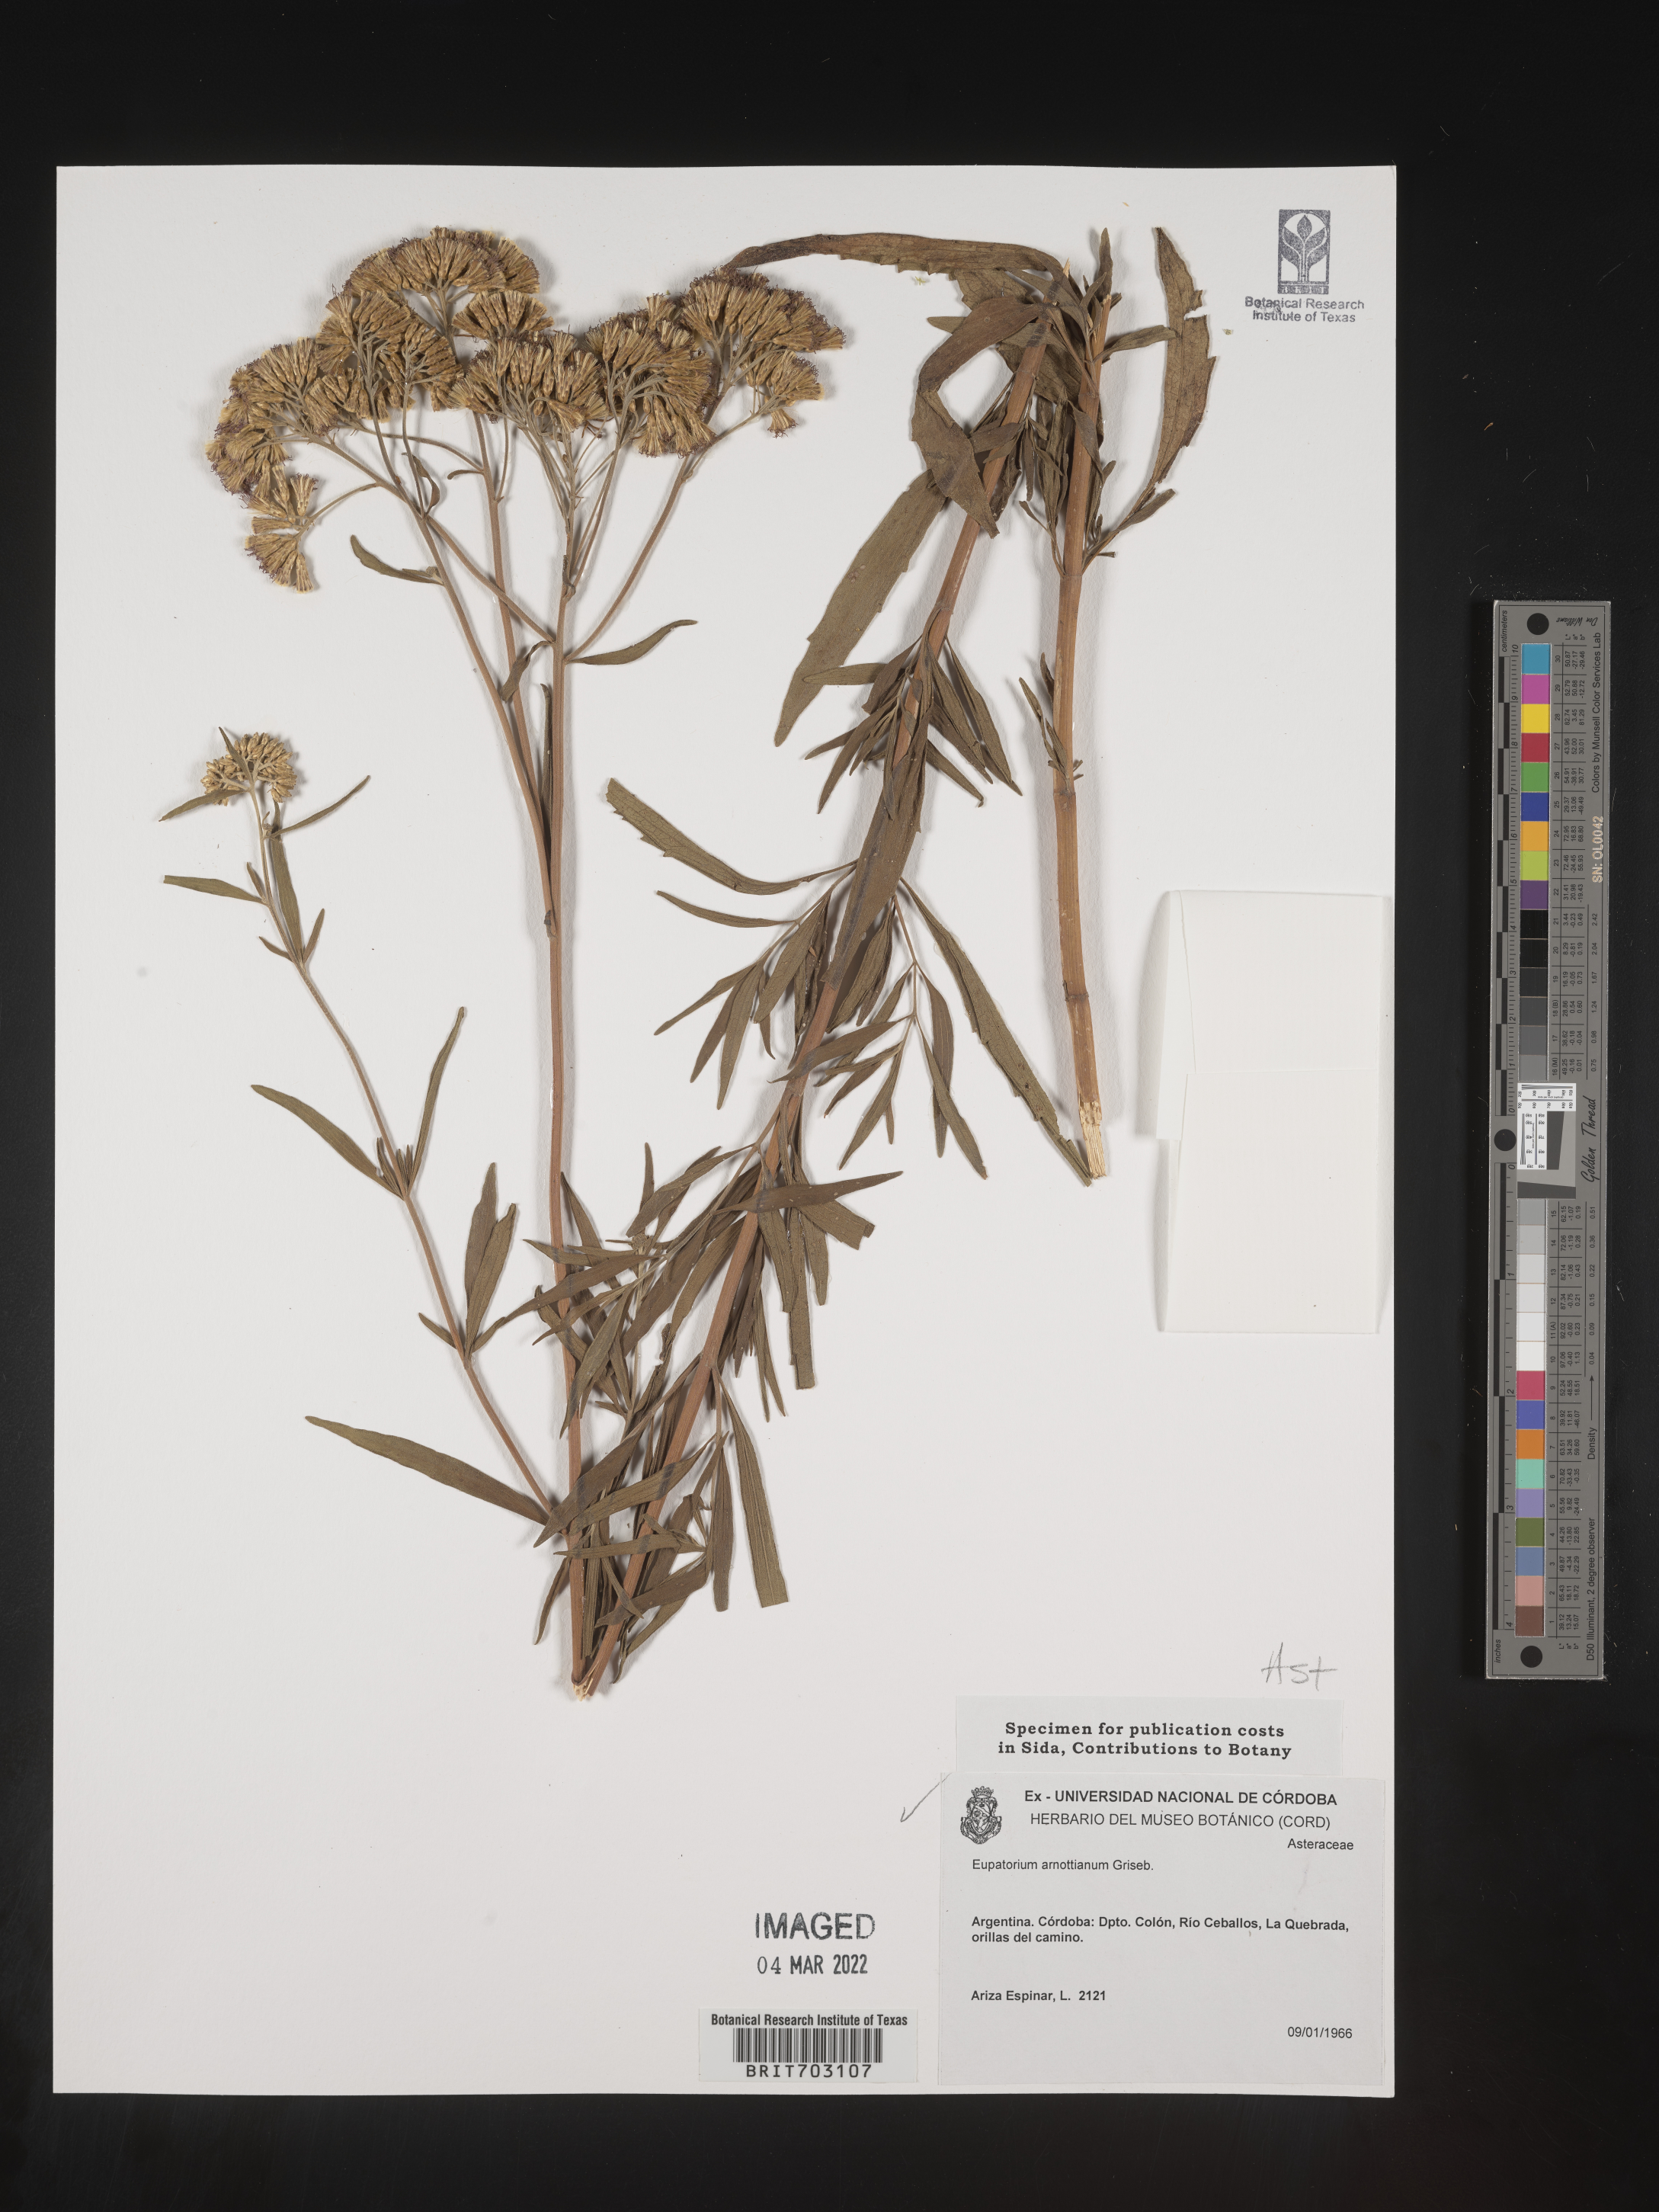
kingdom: Plantae
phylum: Tracheophyta
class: Magnoliopsida
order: Asterales
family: Asteraceae
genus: Eupatorium
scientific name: Eupatorium
